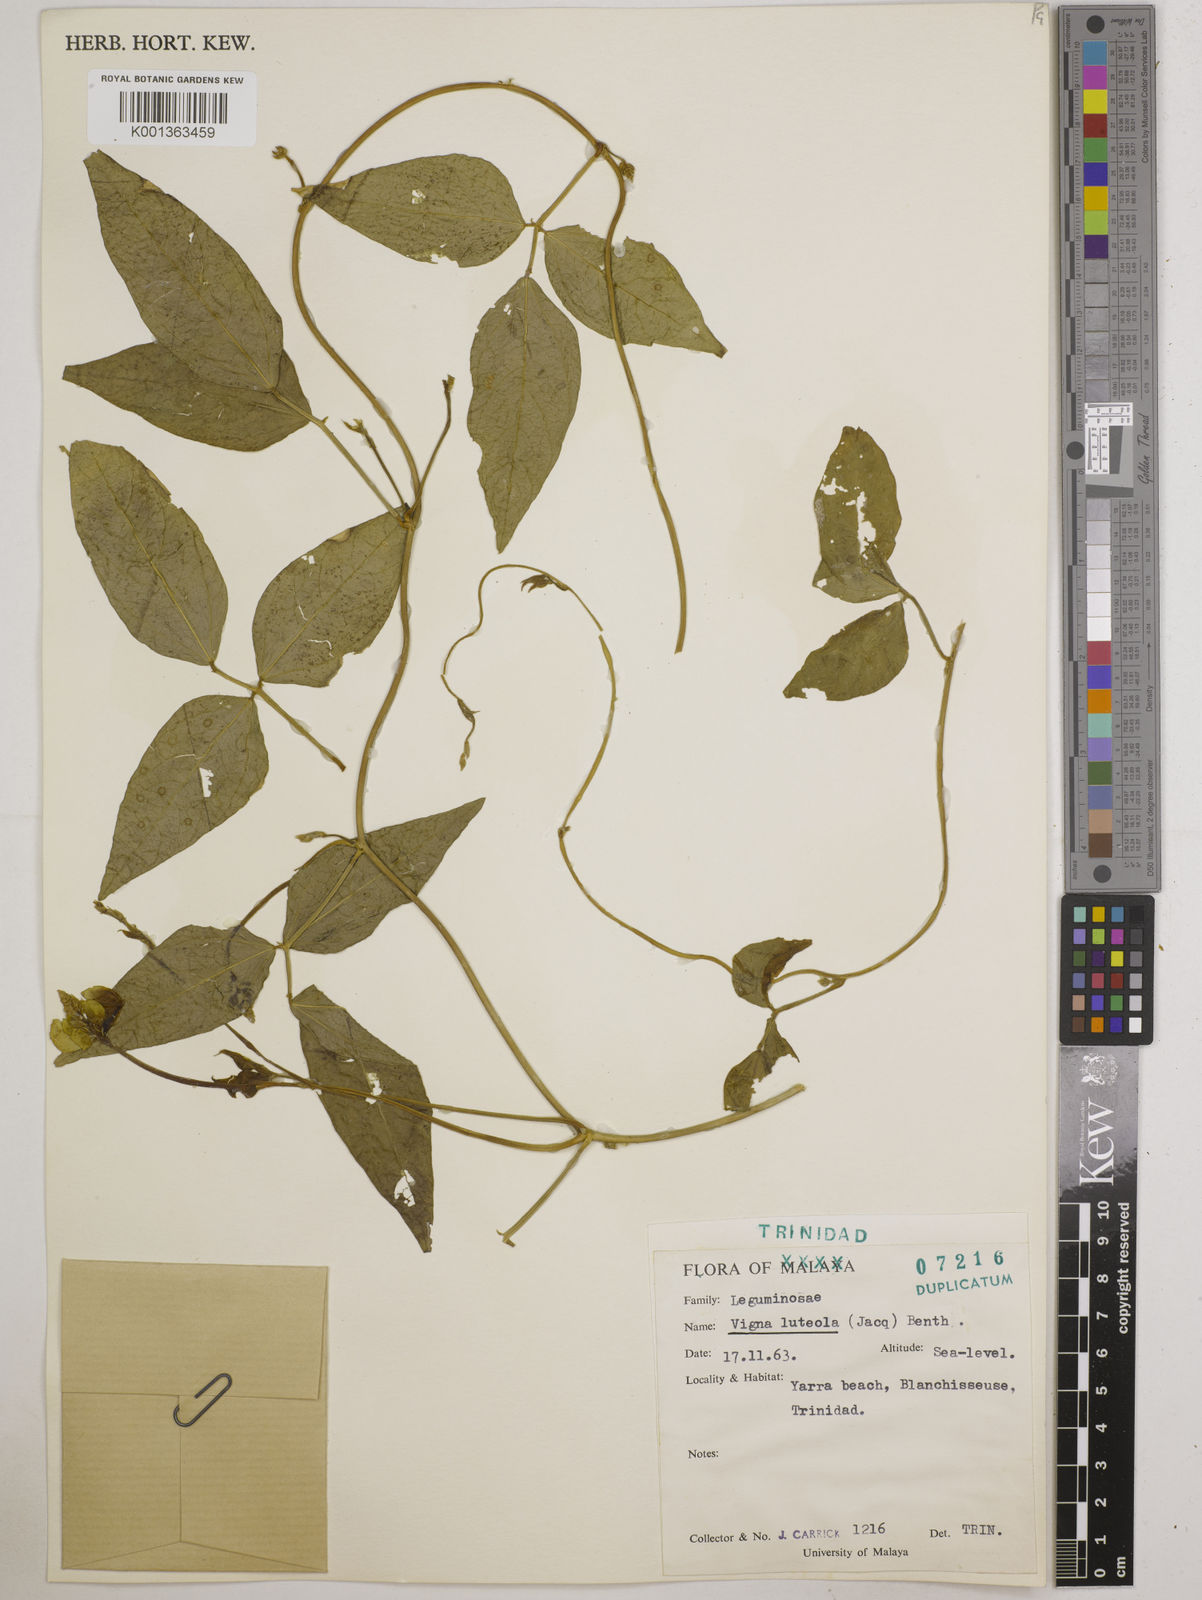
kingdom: Plantae
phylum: Tracheophyta
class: Magnoliopsida
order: Fabales
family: Fabaceae
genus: Vigna
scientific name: Vigna luteola
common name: Hairypod cowpea
